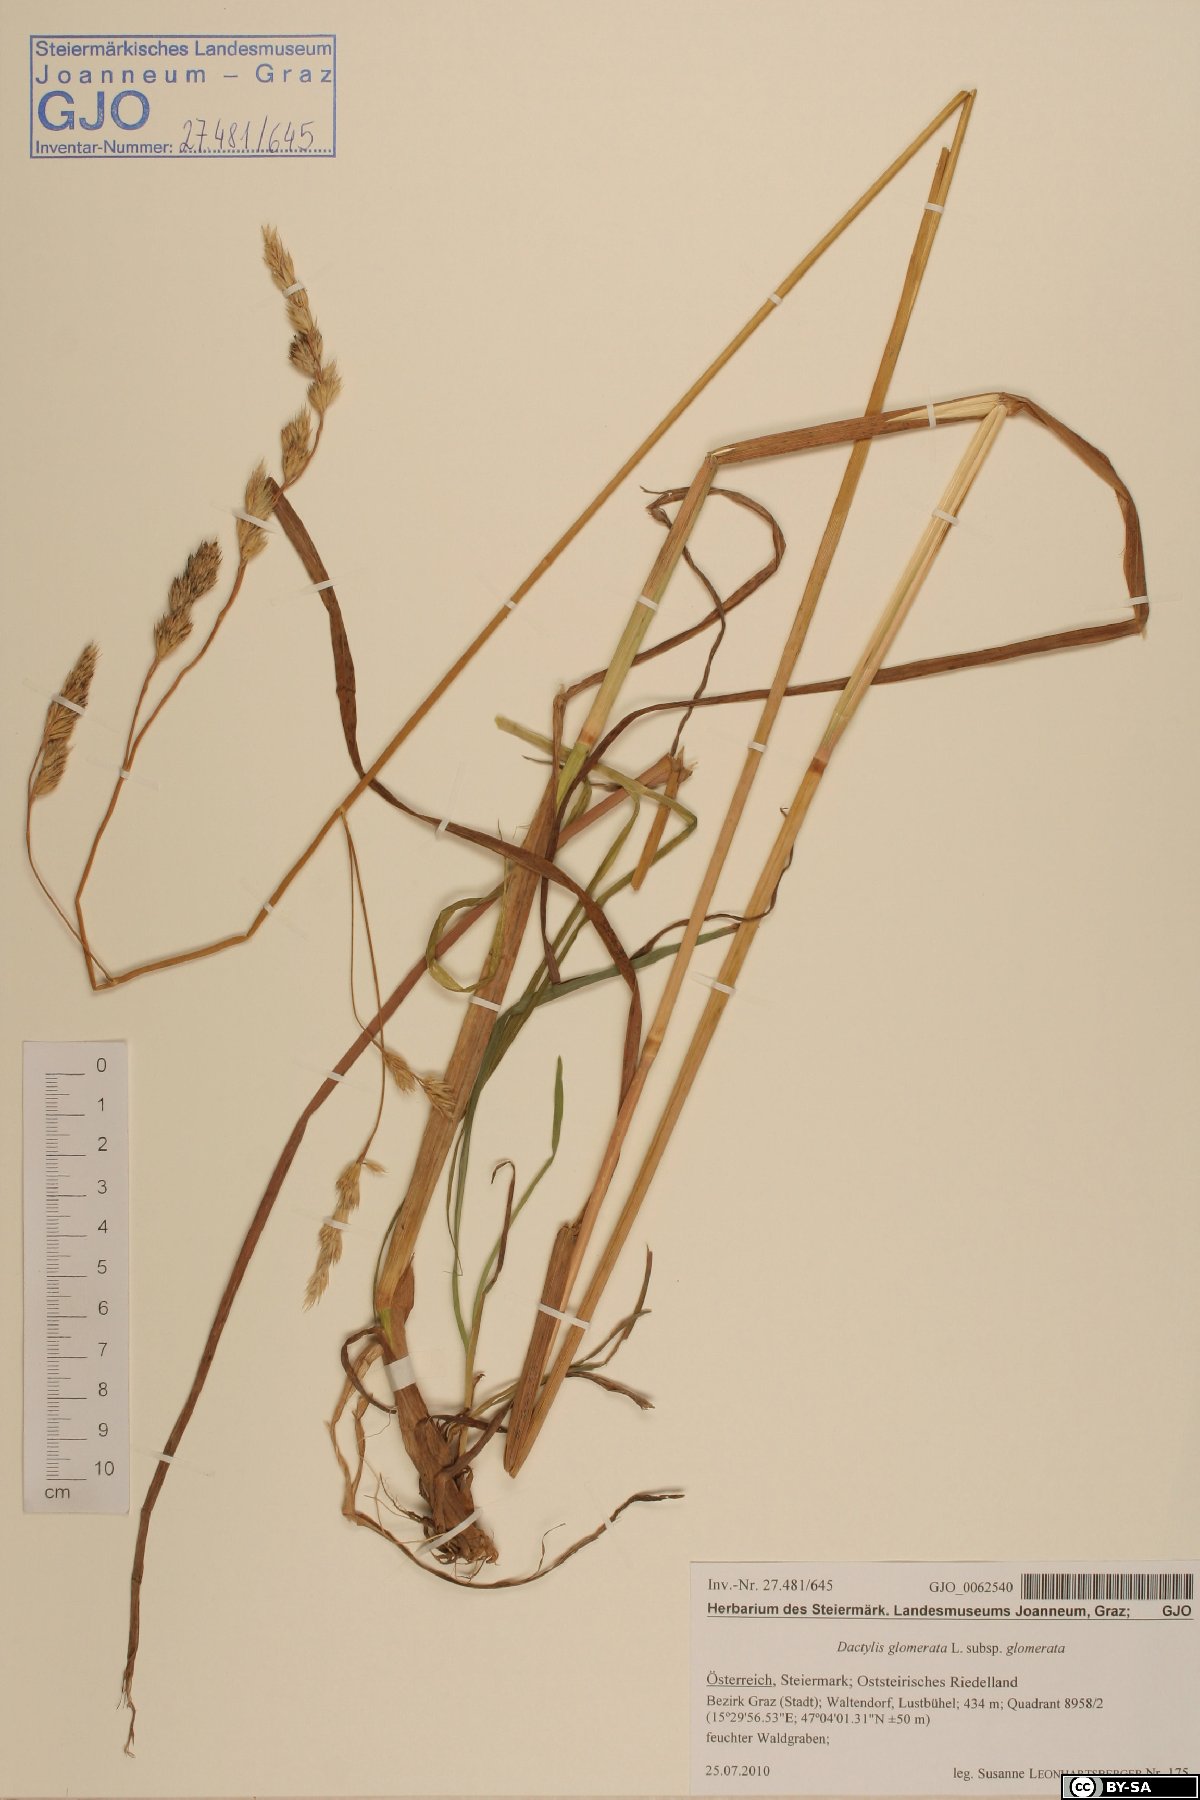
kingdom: Plantae
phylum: Tracheophyta
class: Liliopsida
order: Poales
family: Poaceae
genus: Dactylis
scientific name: Dactylis glomerata
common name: Orchardgrass
